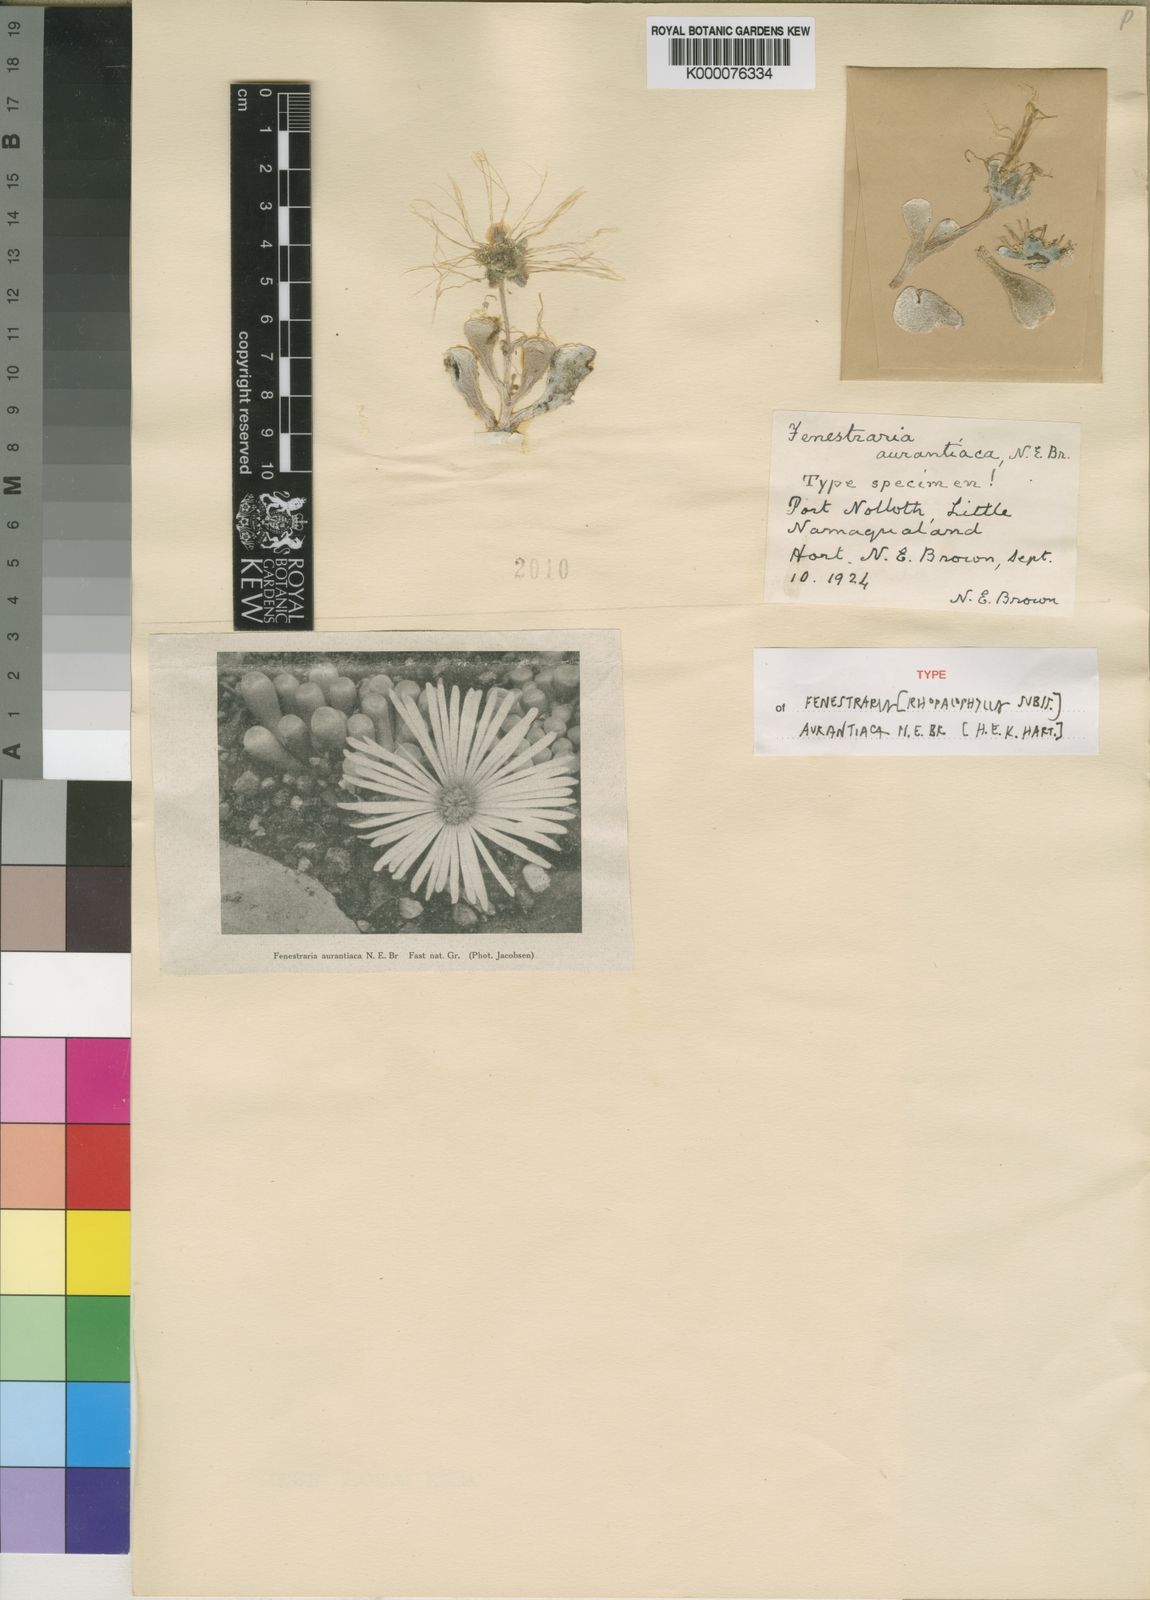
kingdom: Plantae
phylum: Tracheophyta
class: Magnoliopsida
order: Caryophyllales
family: Aizoaceae
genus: Fenestraria
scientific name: Fenestraria rhopalophylla
